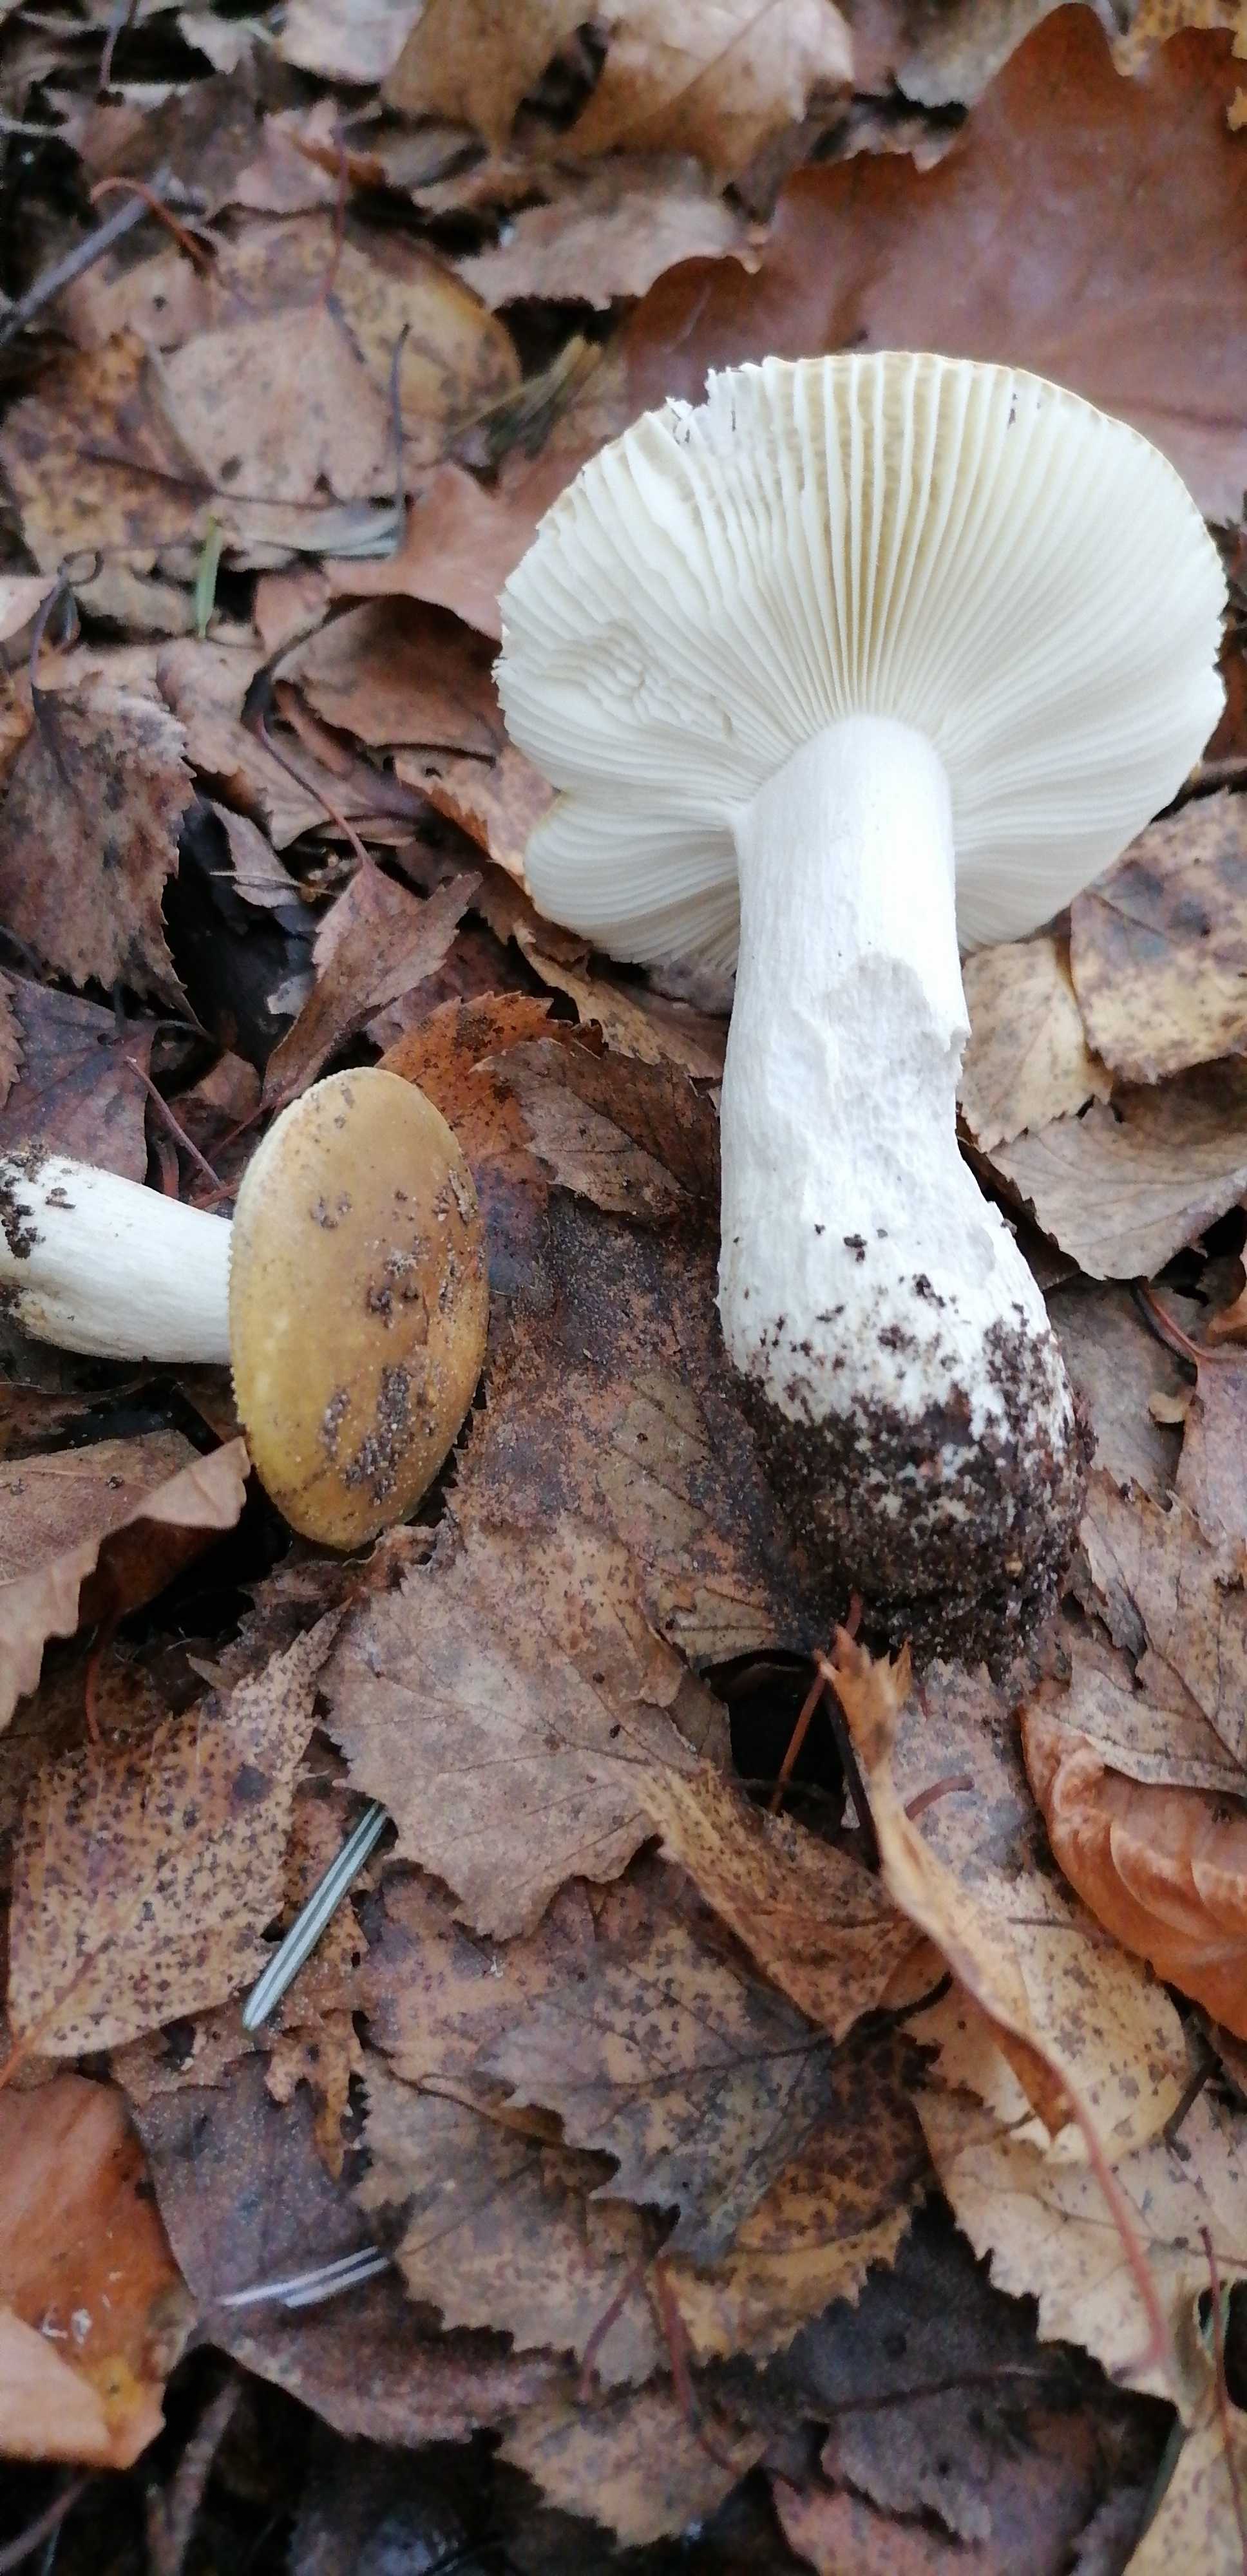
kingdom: Fungi
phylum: Basidiomycota
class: Agaricomycetes
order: Russulales
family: Russulaceae
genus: Russula
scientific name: Russula
